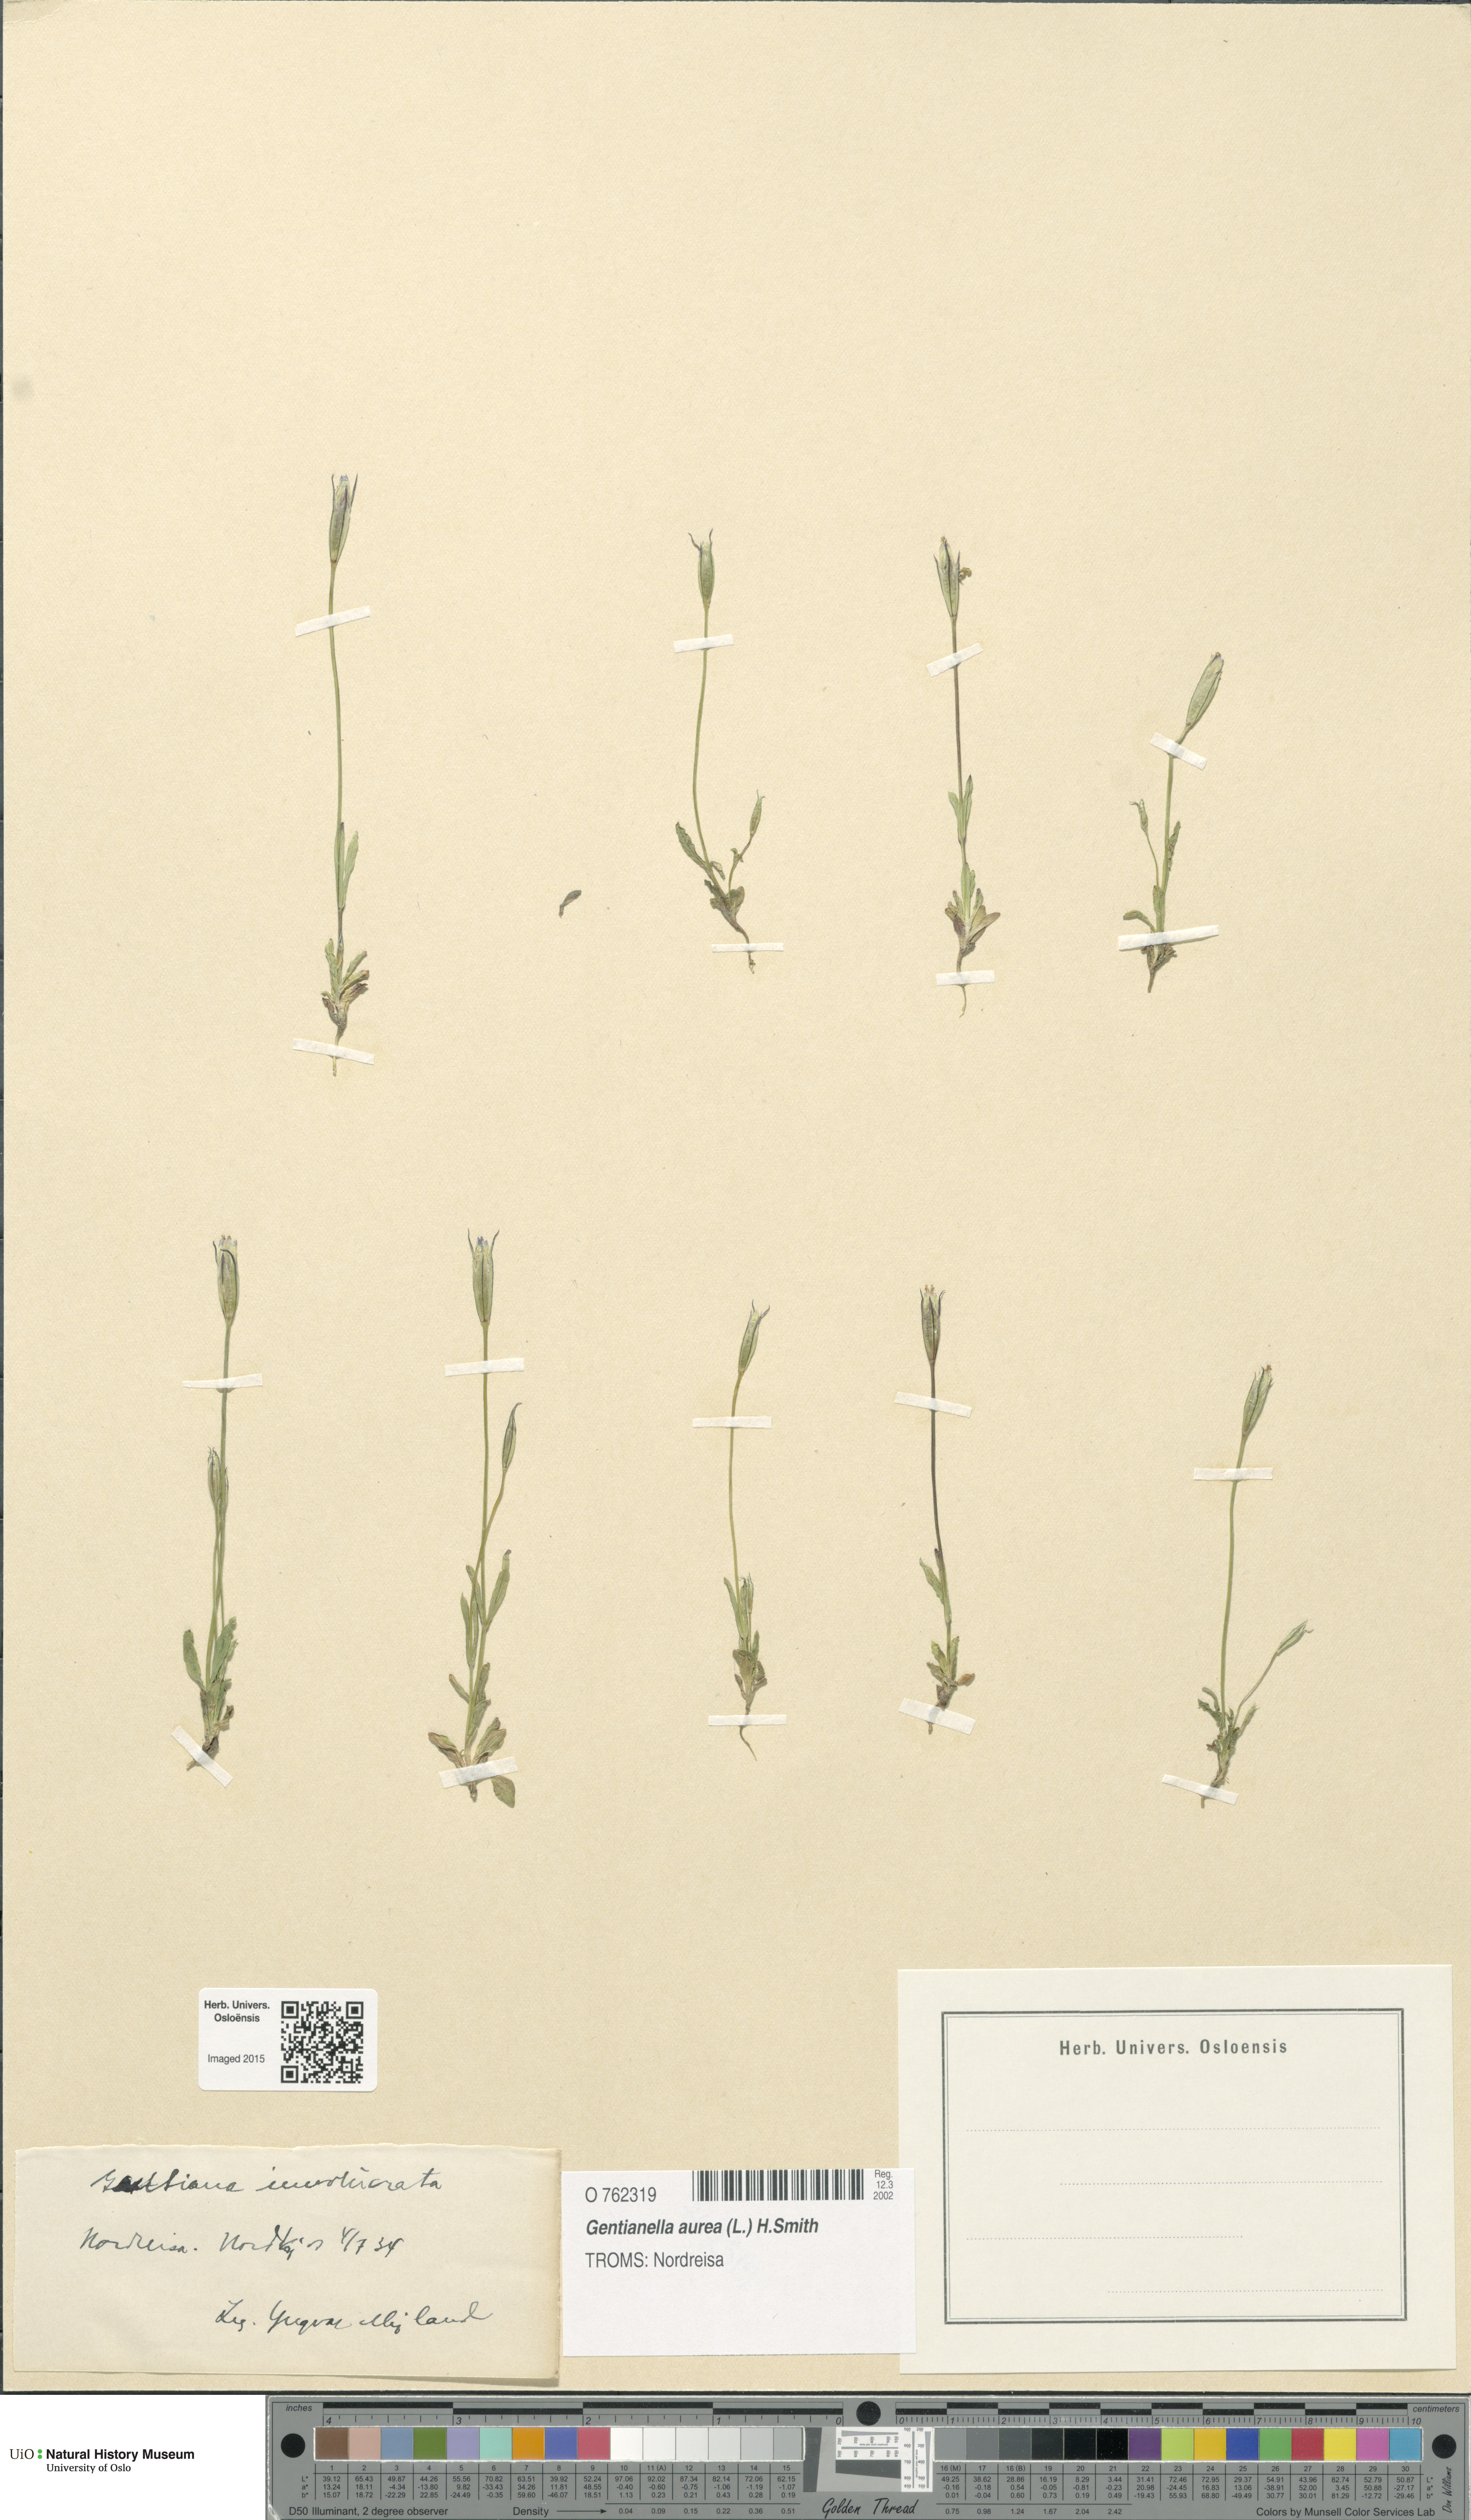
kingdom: Plantae
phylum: Tracheophyta
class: Magnoliopsida
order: Gentianales
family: Gentianaceae
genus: Gentianella
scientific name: Gentianella aurea
